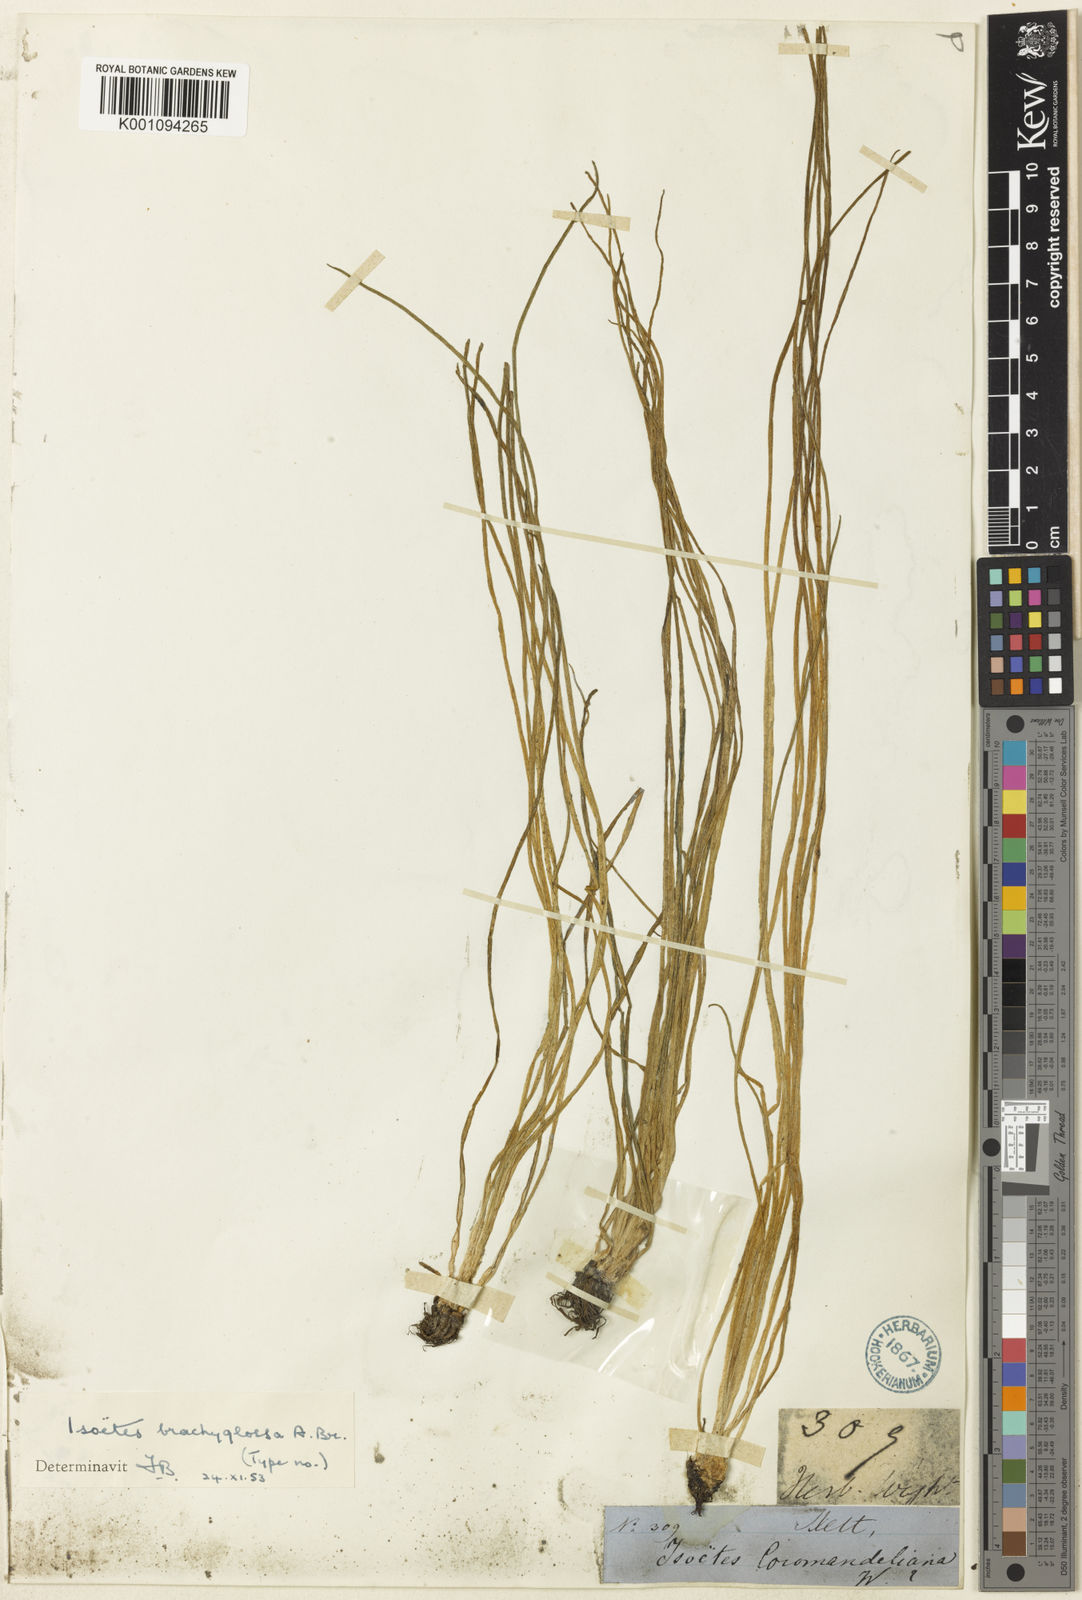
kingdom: Plantae
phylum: Tracheophyta
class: Lycopodiopsida
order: Isoetales
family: Isoetaceae
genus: Isoetes
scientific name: Isoetes
